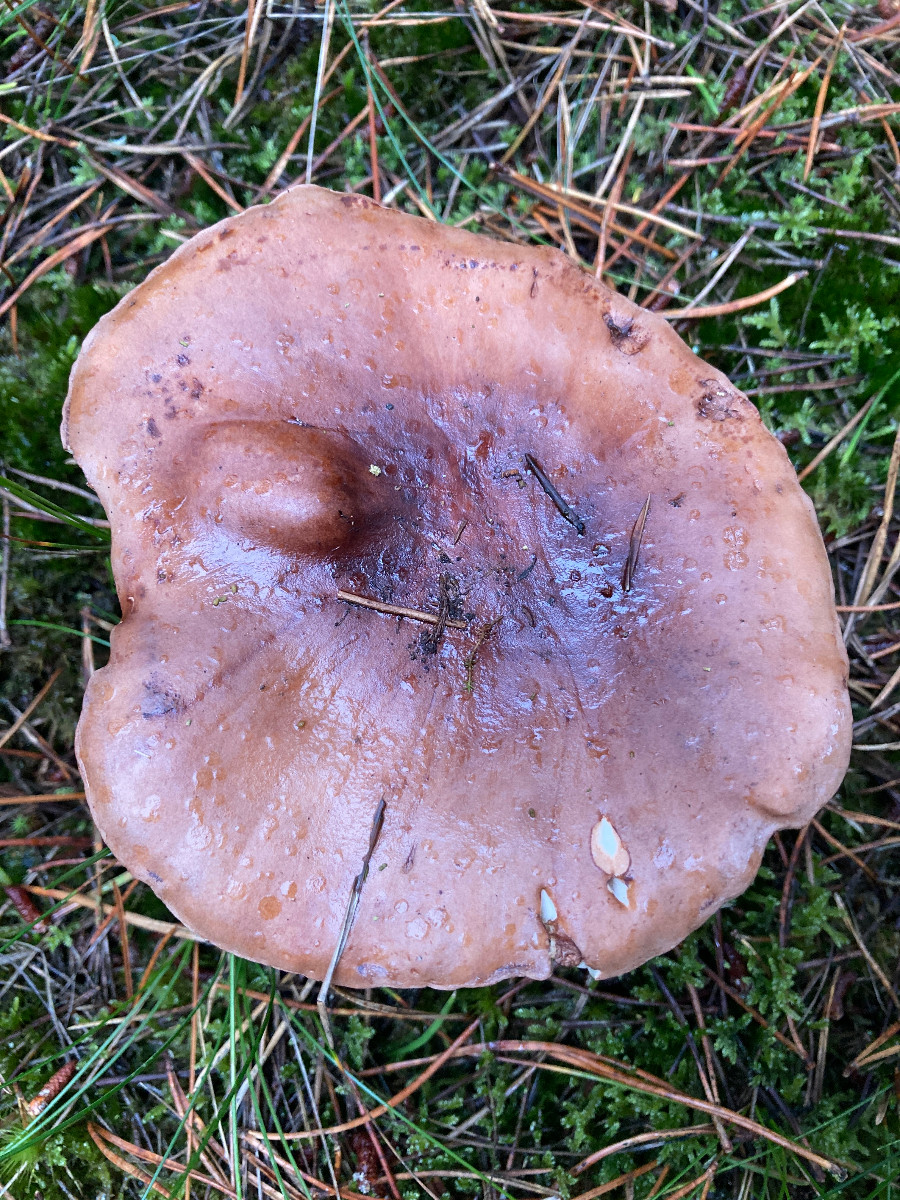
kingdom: Fungi
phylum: Basidiomycota
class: Agaricomycetes
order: Agaricales
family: Tricholomataceae
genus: Tricholoma
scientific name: Tricholoma pessundatum
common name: dråbeplettet ridderhat
